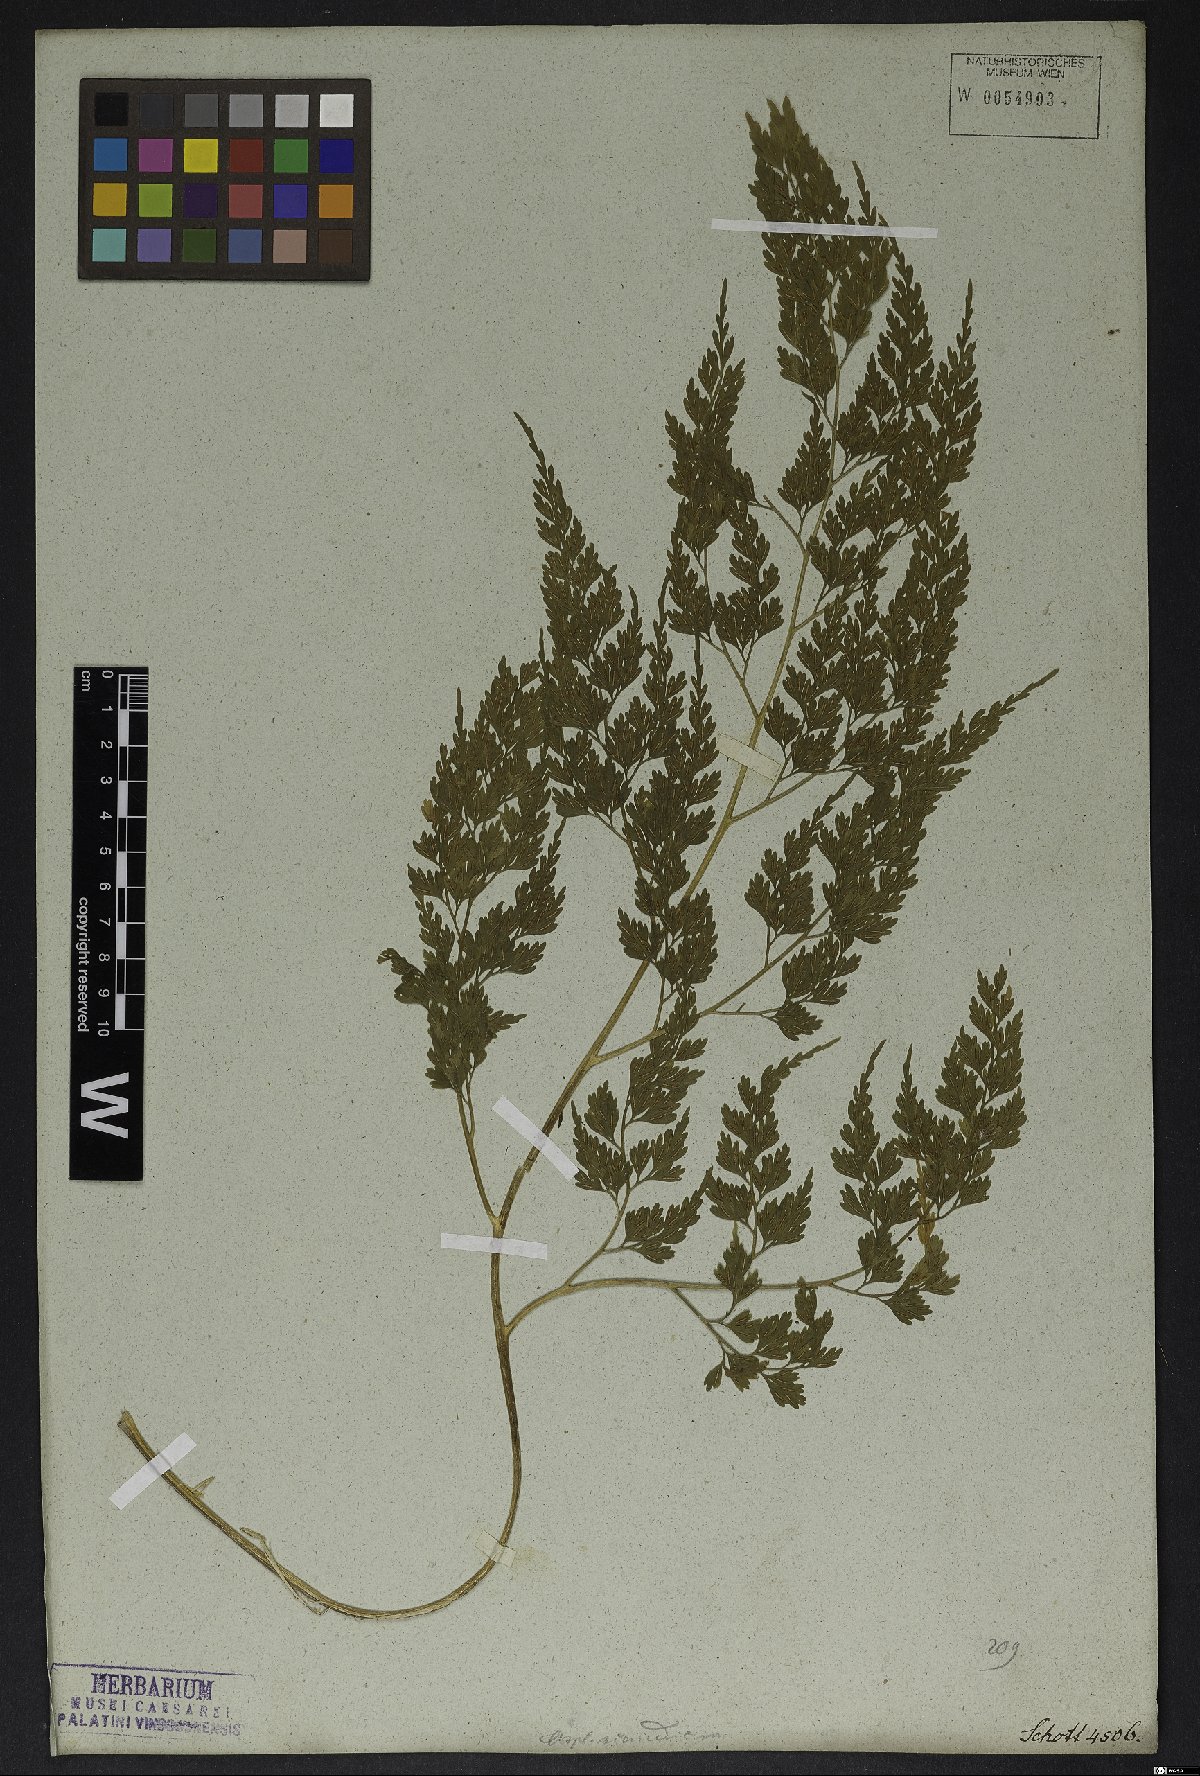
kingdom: Plantae
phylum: Tracheophyta
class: Polypodiopsida
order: Polypodiales
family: Aspleniaceae
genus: Asplenium
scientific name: Asplenium scandicinum
